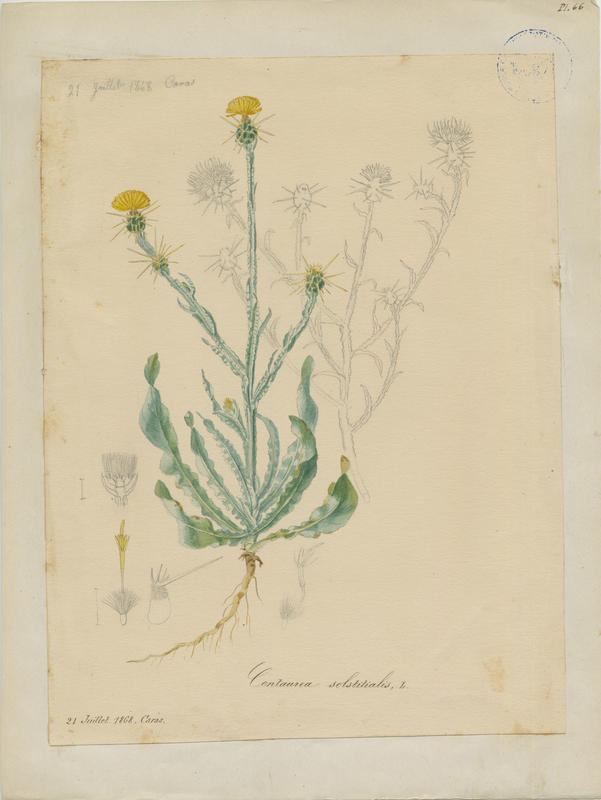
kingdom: Plantae
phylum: Tracheophyta
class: Magnoliopsida
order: Asterales
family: Asteraceae
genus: Centaurea
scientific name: Centaurea solstitialis
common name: Yellow star-thistle
